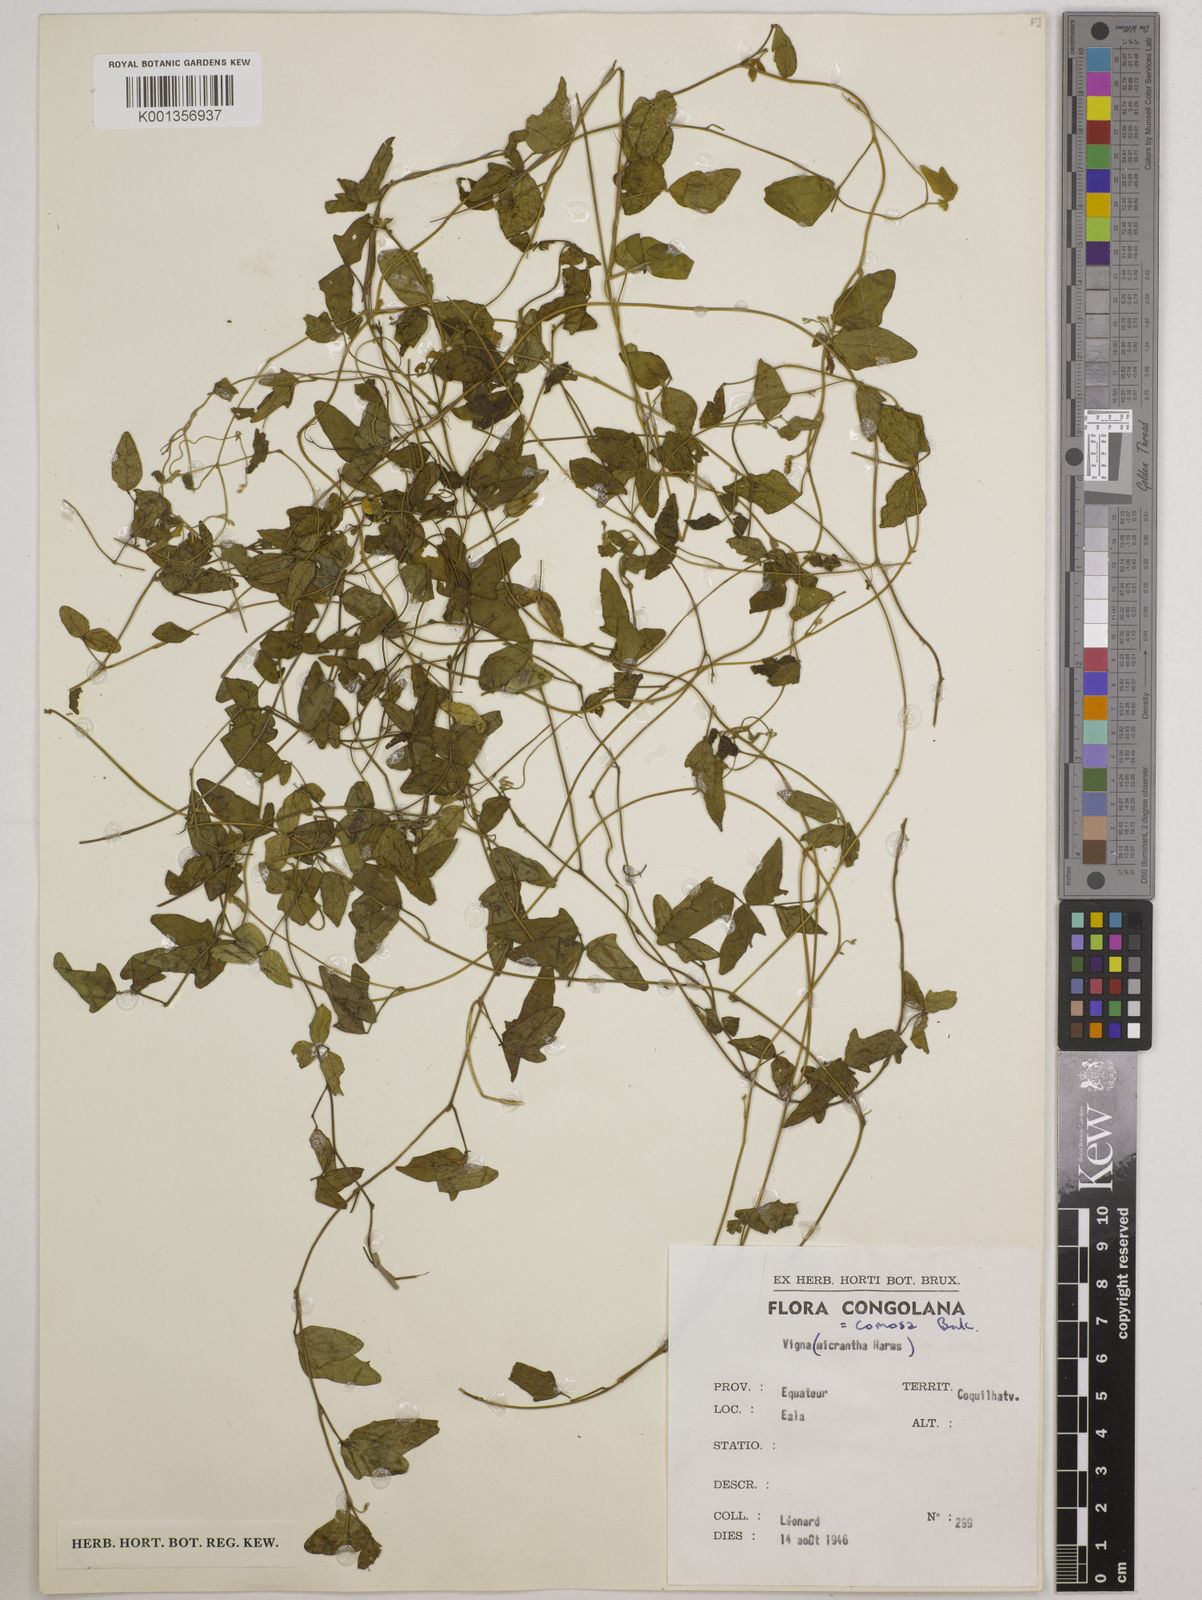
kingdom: Plantae
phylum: Tracheophyta
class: Magnoliopsida
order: Fabales
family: Fabaceae
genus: Vigna
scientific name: Vigna comosa
